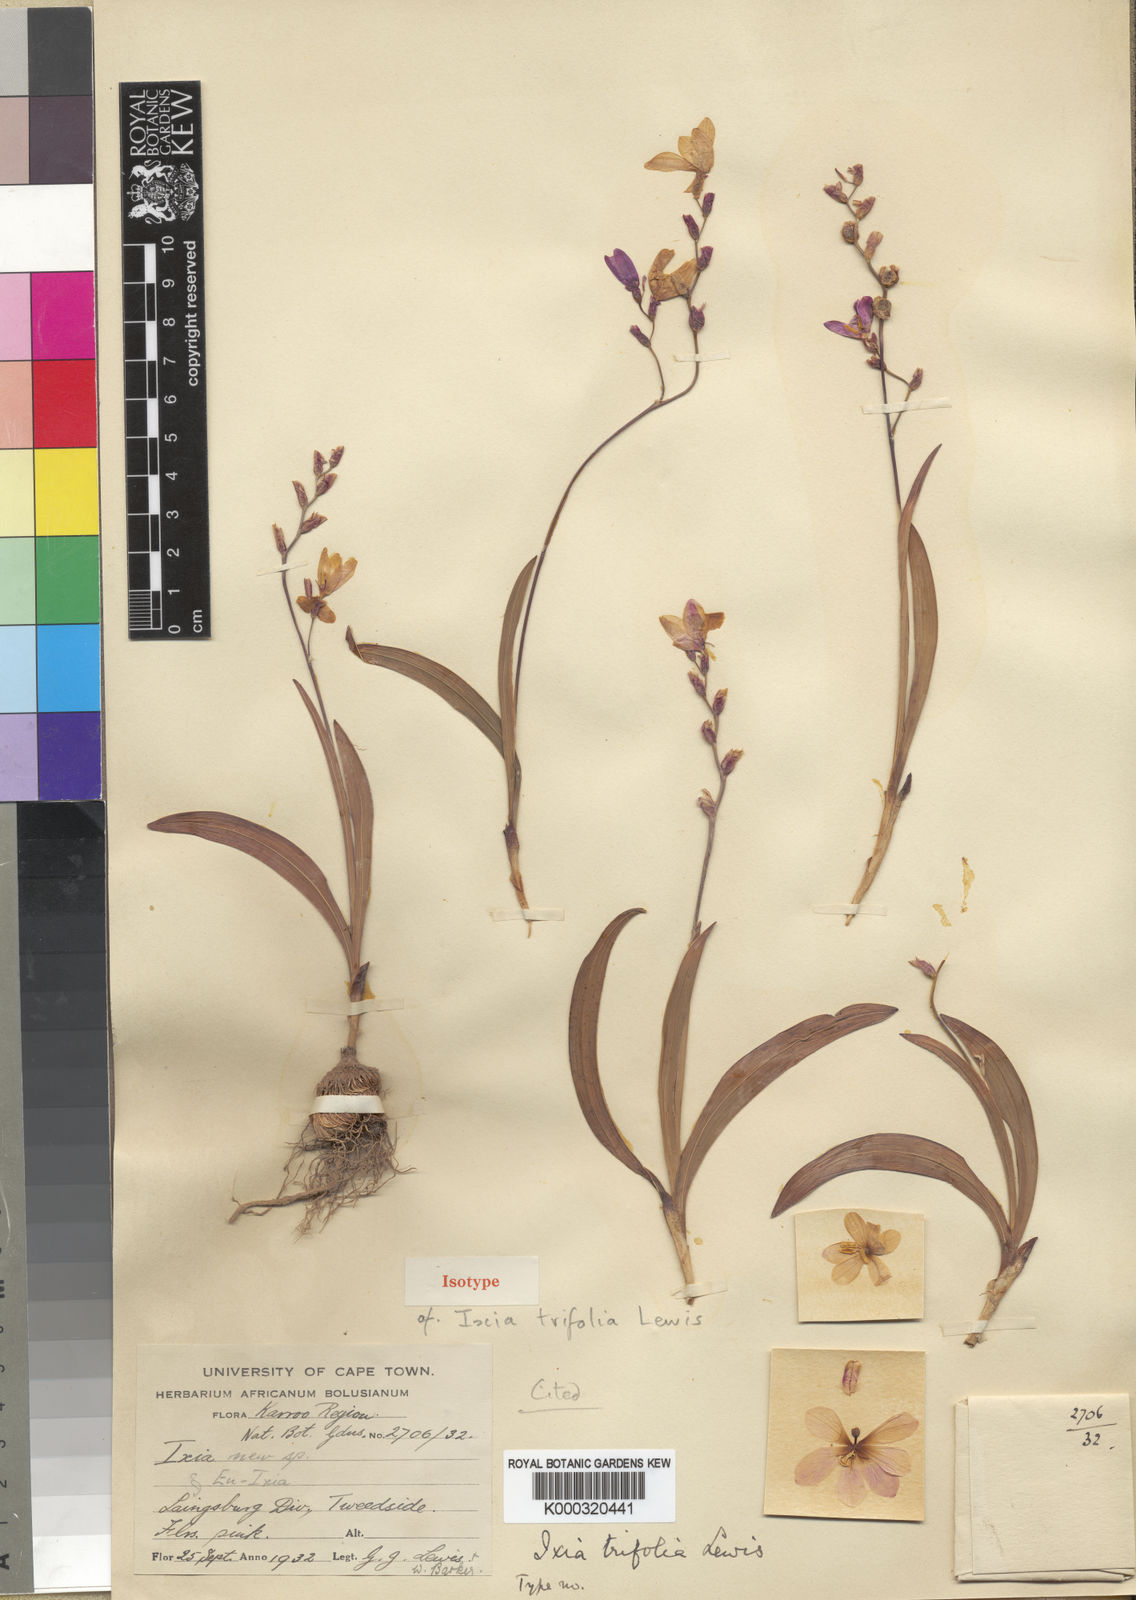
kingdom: Plantae
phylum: Tracheophyta
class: Liliopsida
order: Asparagales
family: Iridaceae
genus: Ixia
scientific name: Ixia trifolia
